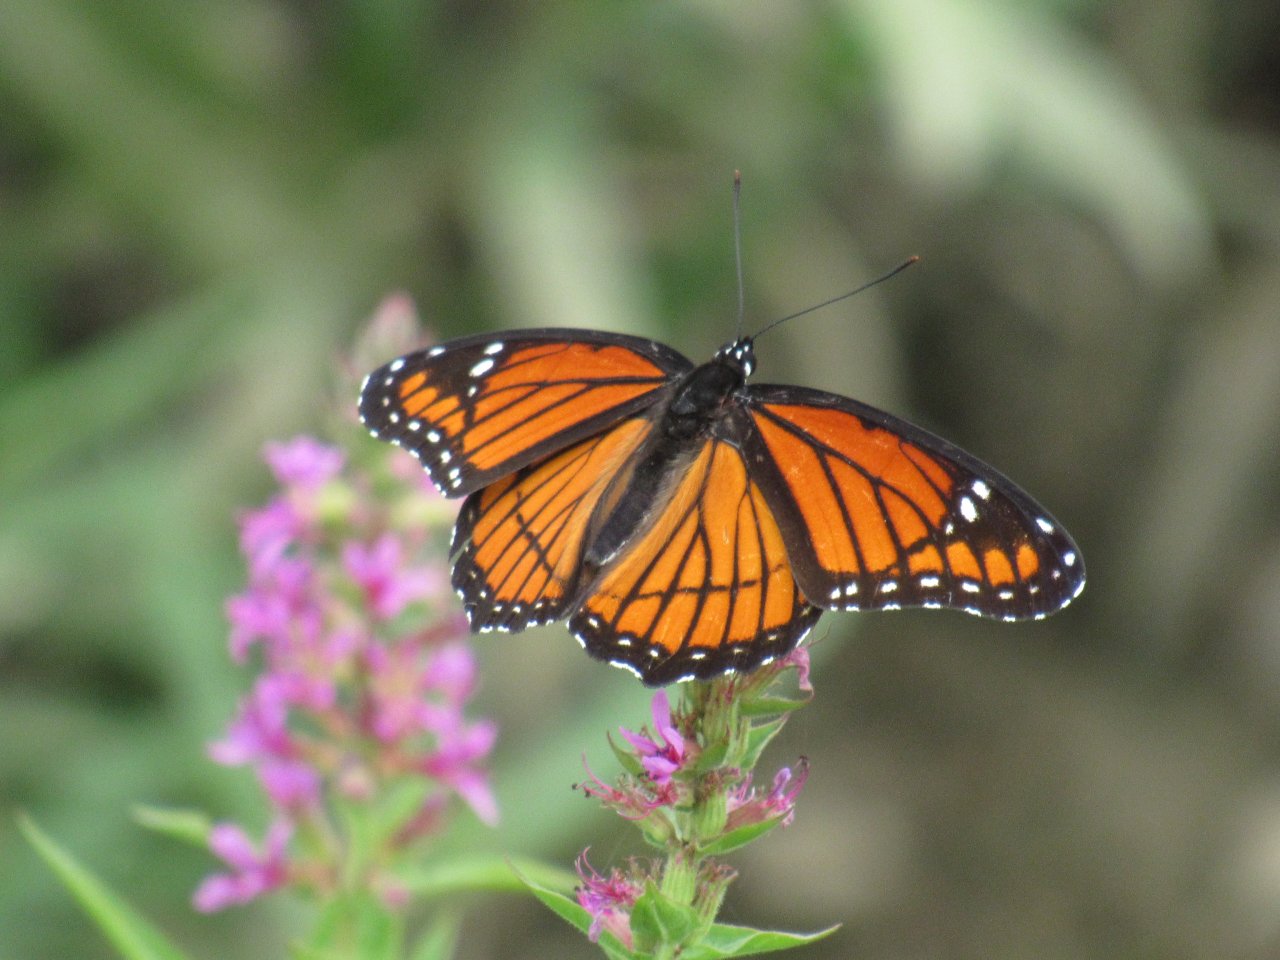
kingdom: Animalia
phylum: Arthropoda
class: Insecta
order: Lepidoptera
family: Nymphalidae
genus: Limenitis
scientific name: Limenitis archippus
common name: Viceroy
